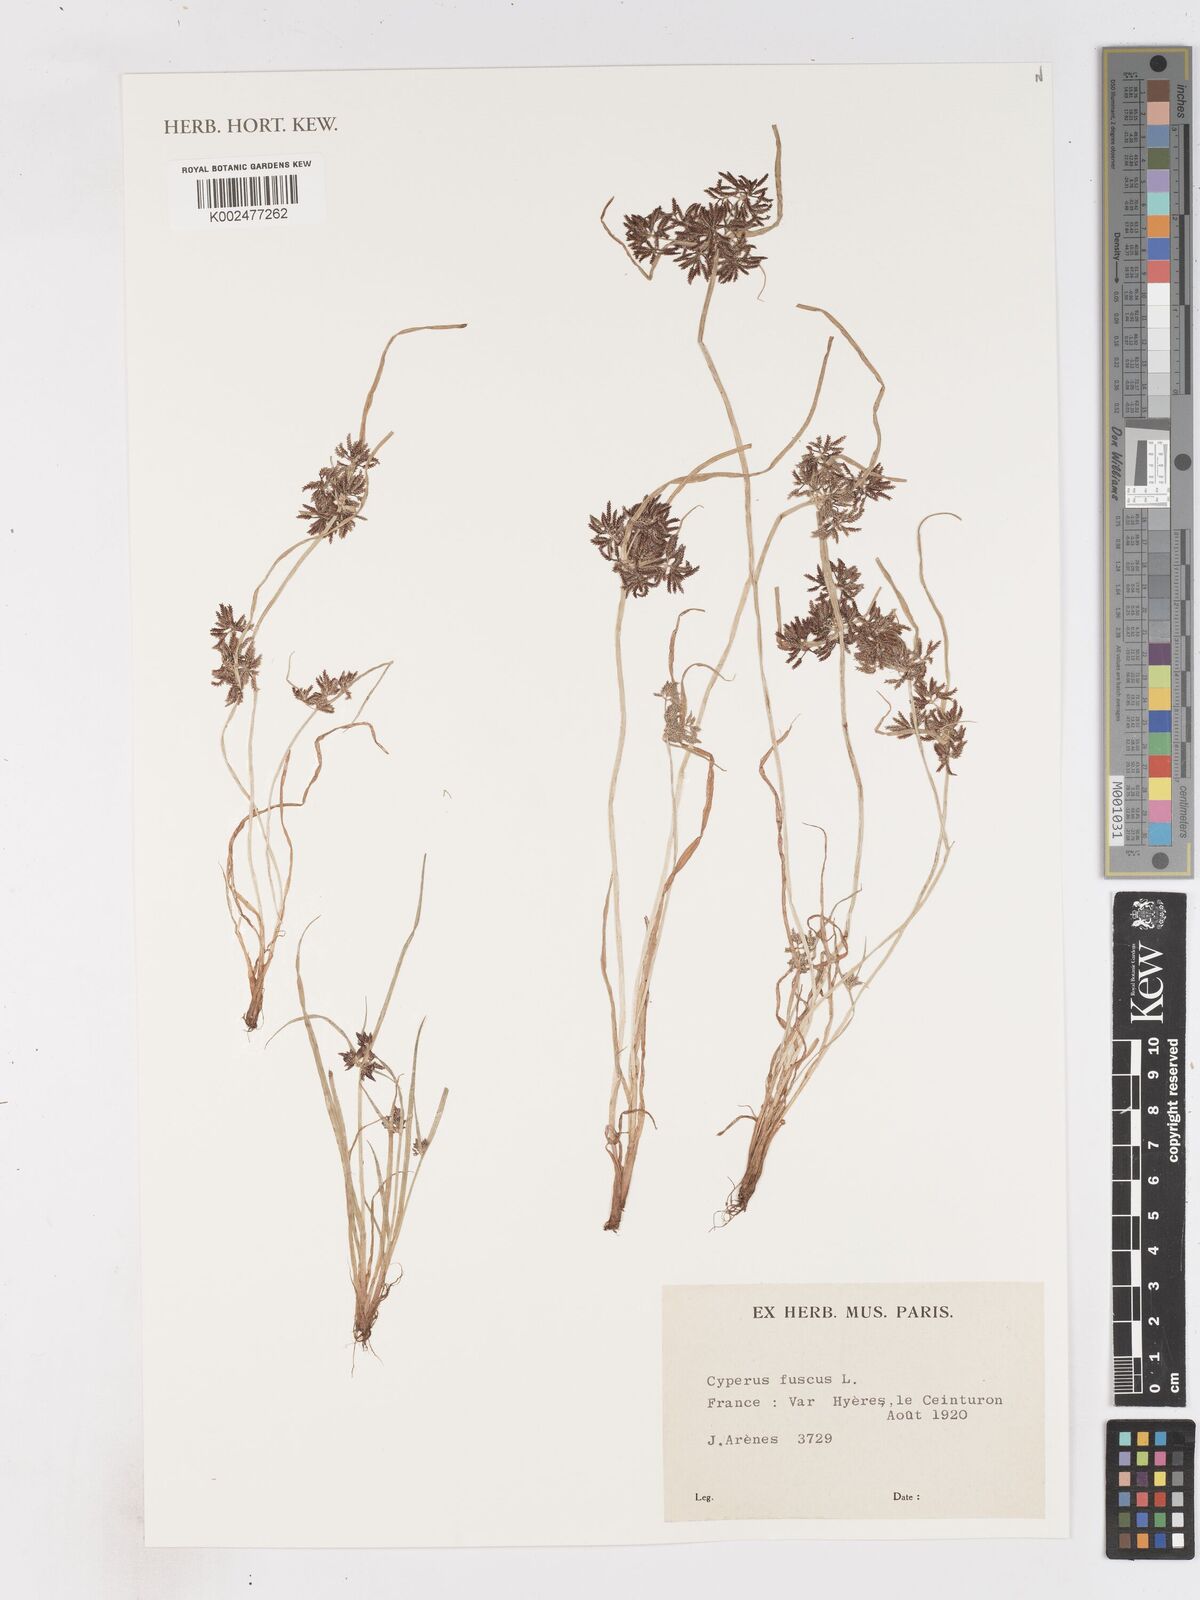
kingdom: Plantae
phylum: Tracheophyta
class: Liliopsida
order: Poales
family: Cyperaceae
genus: Cyperus
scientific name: Cyperus fuscus
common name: Brown galingale
